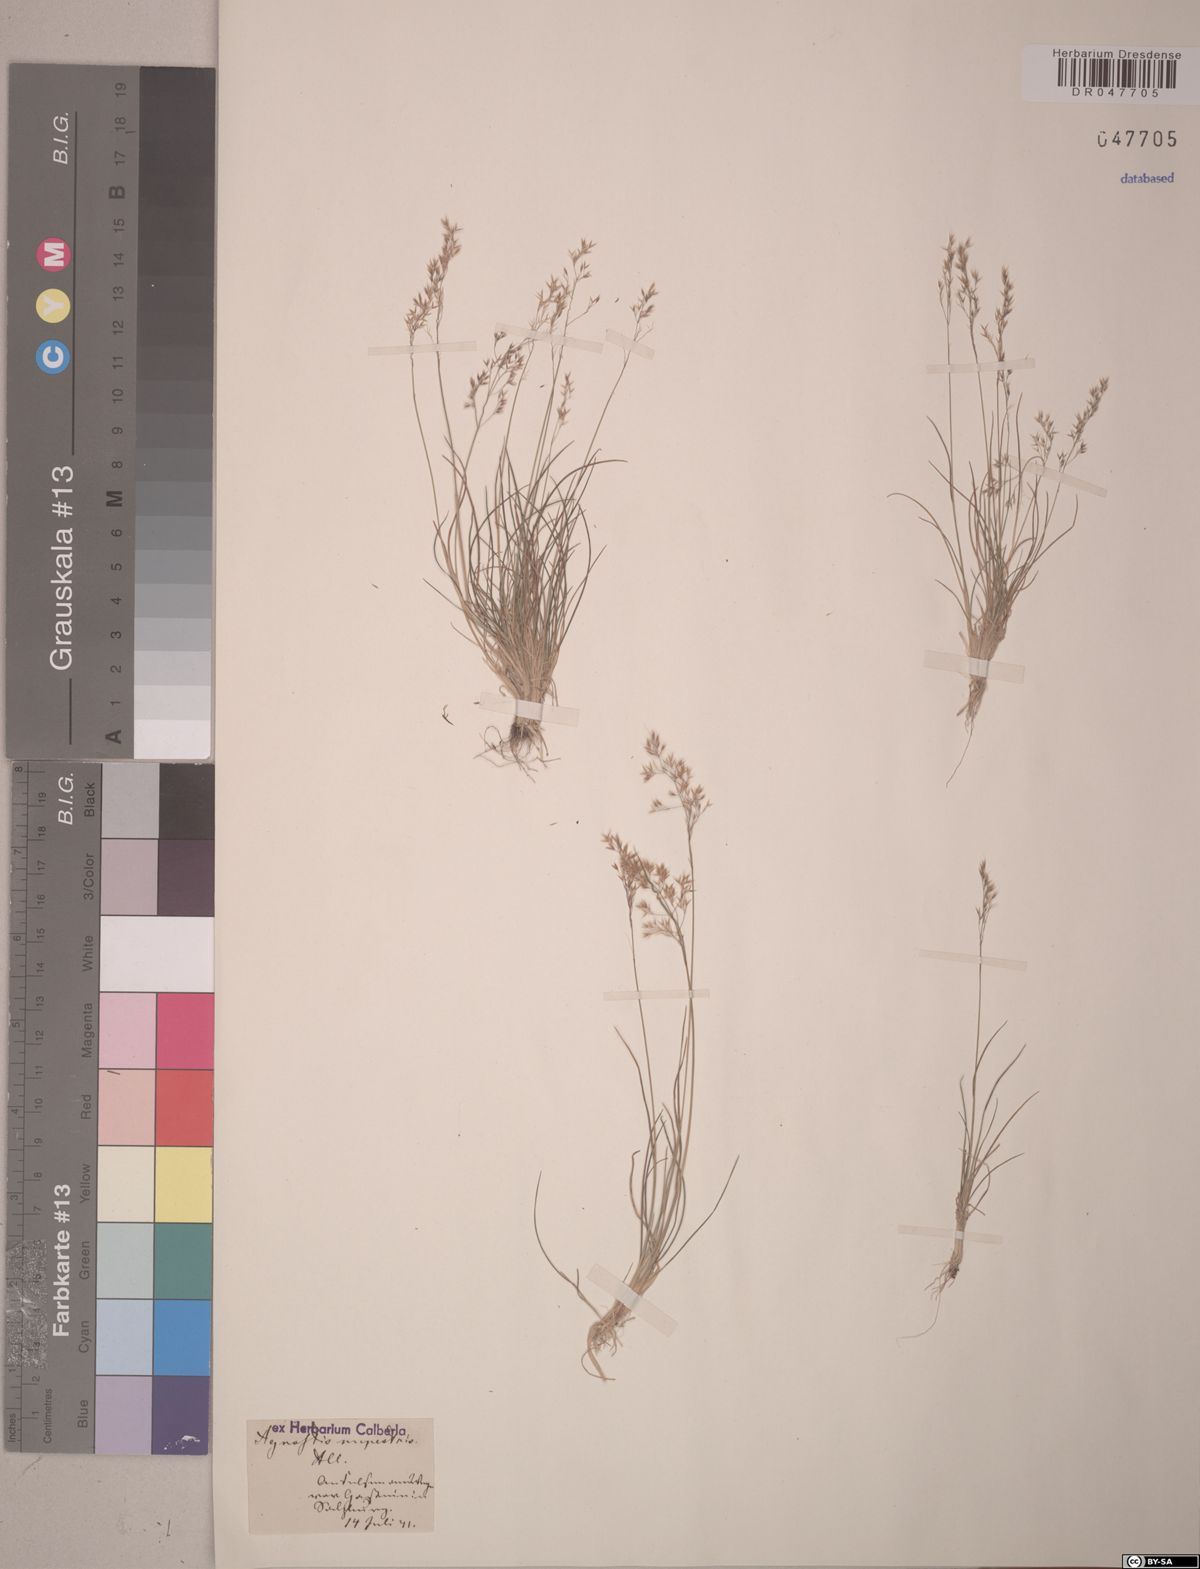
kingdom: Plantae
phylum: Tracheophyta
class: Liliopsida
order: Poales
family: Poaceae
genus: Agrostis
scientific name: Agrostis rupestris
